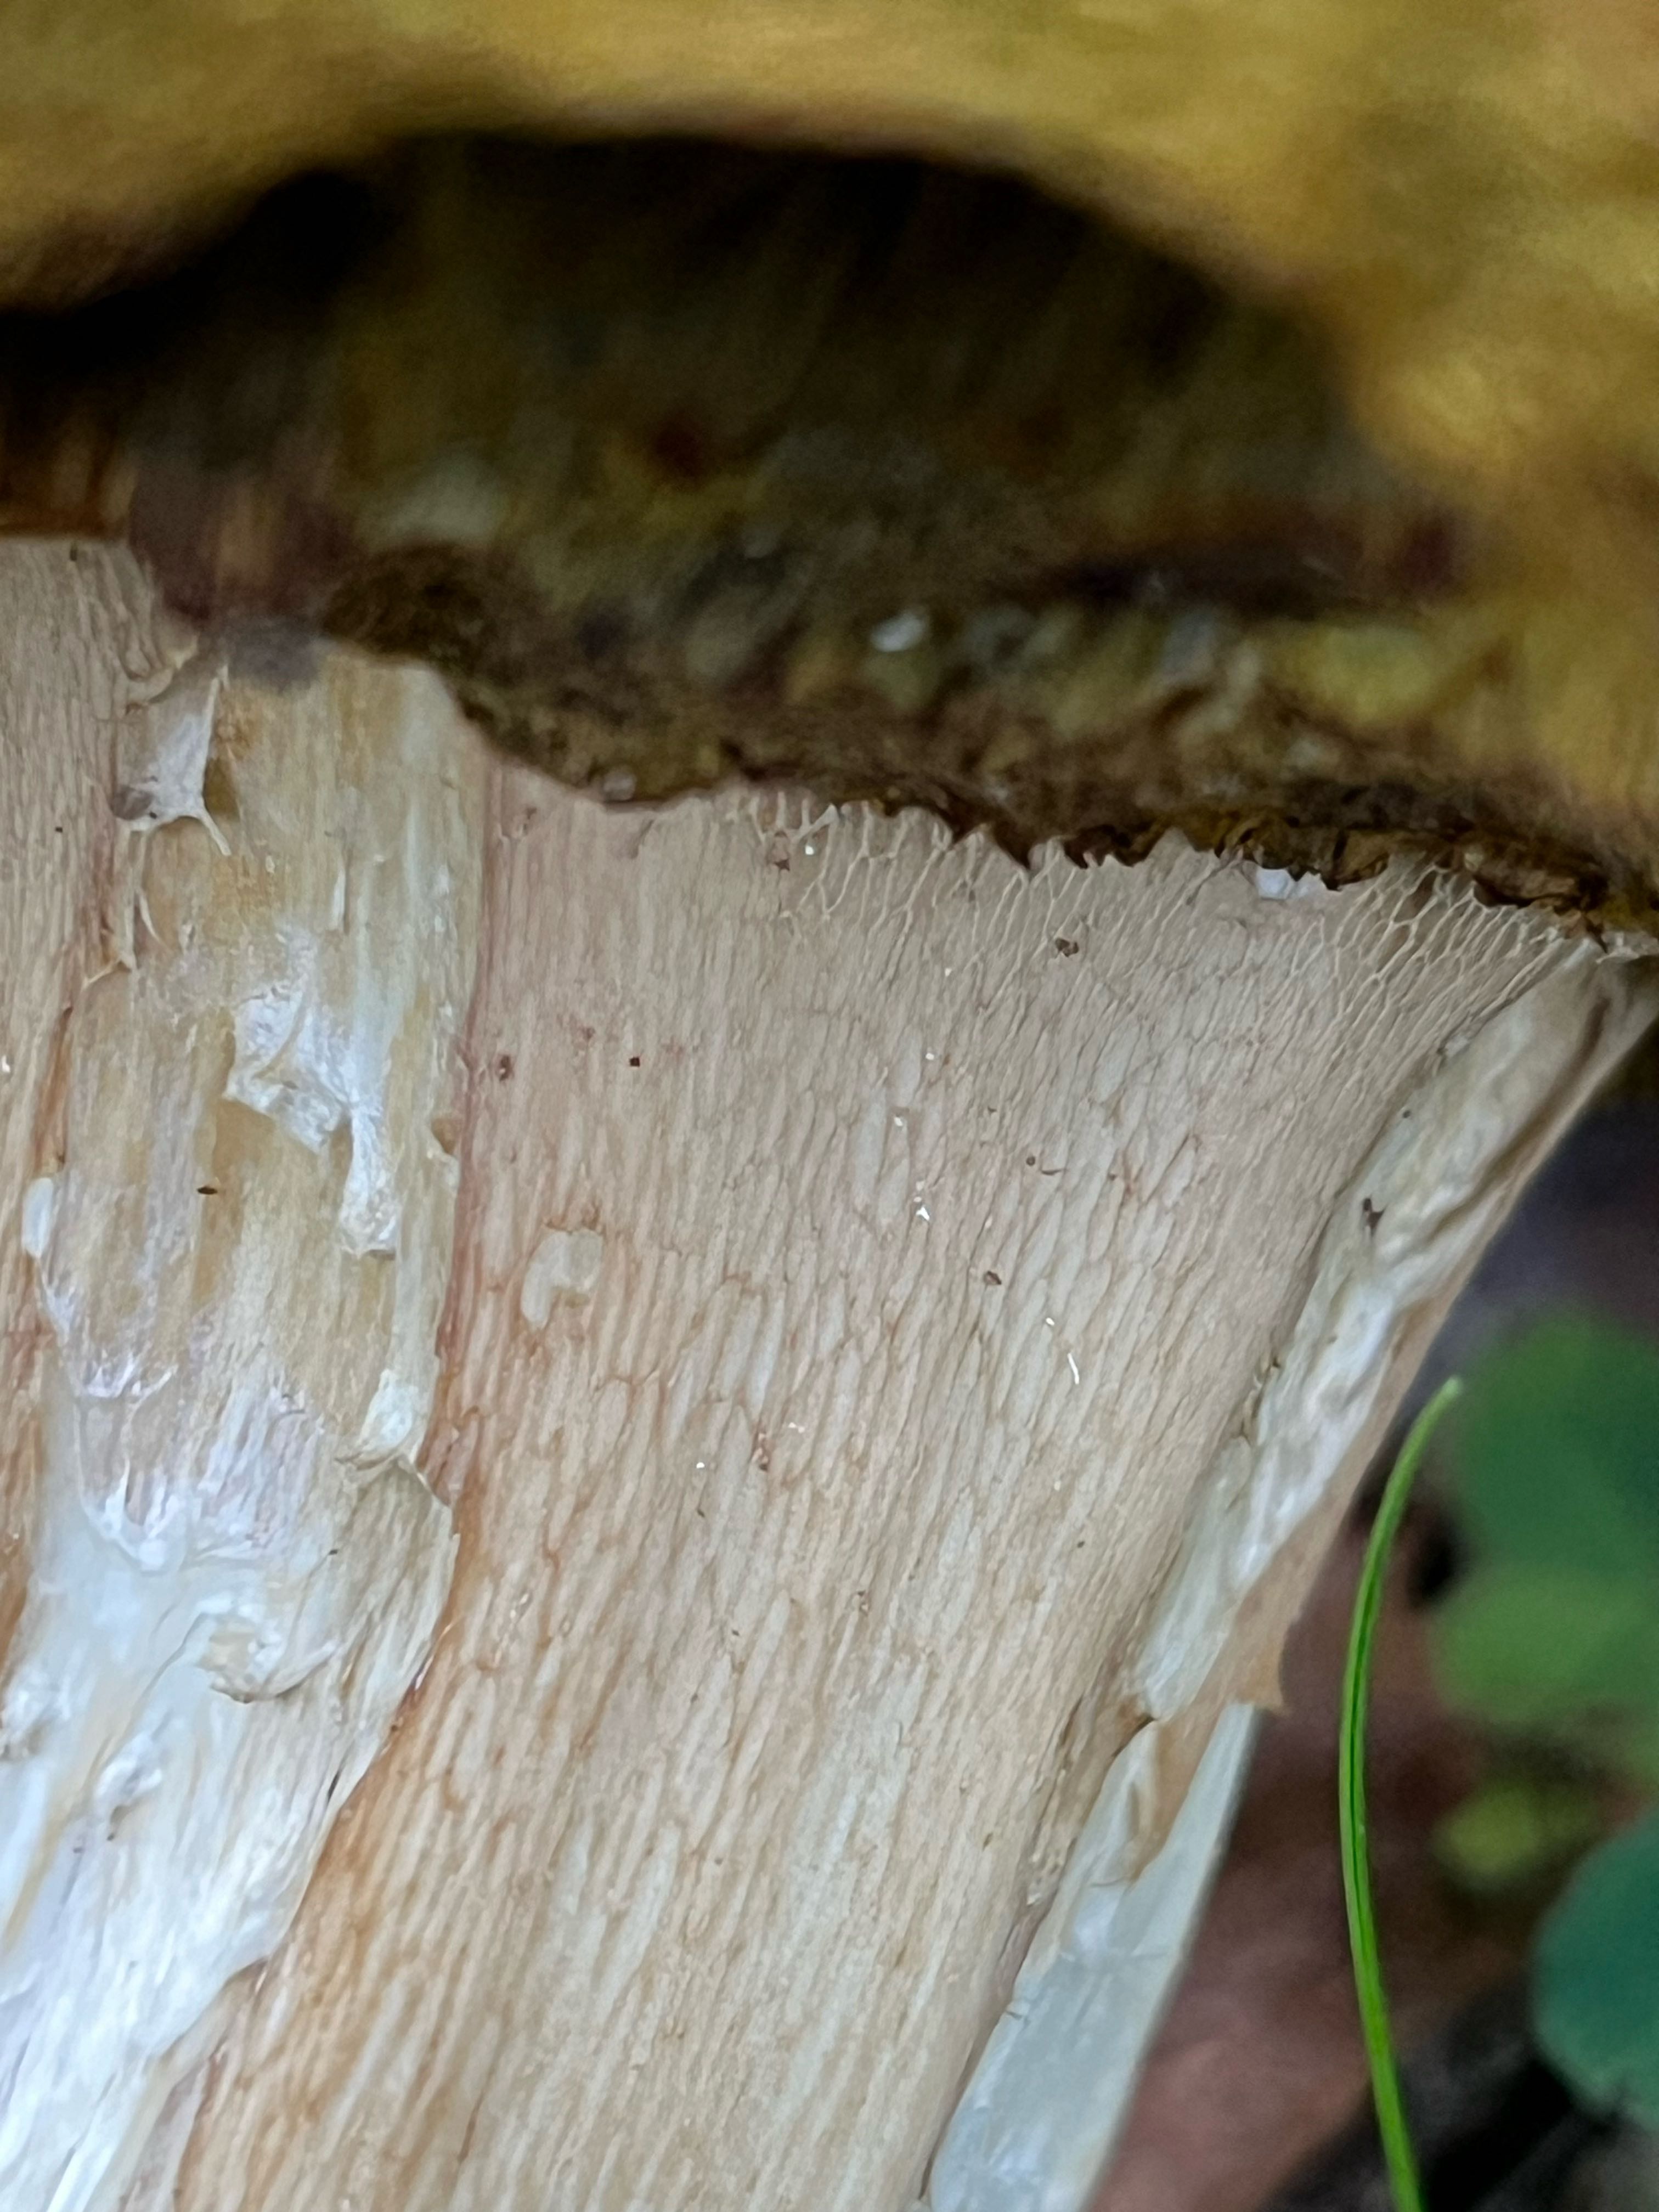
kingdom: Fungi
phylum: Basidiomycota
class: Agaricomycetes
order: Boletales
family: Boletaceae
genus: Boletus
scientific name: Boletus edulis
